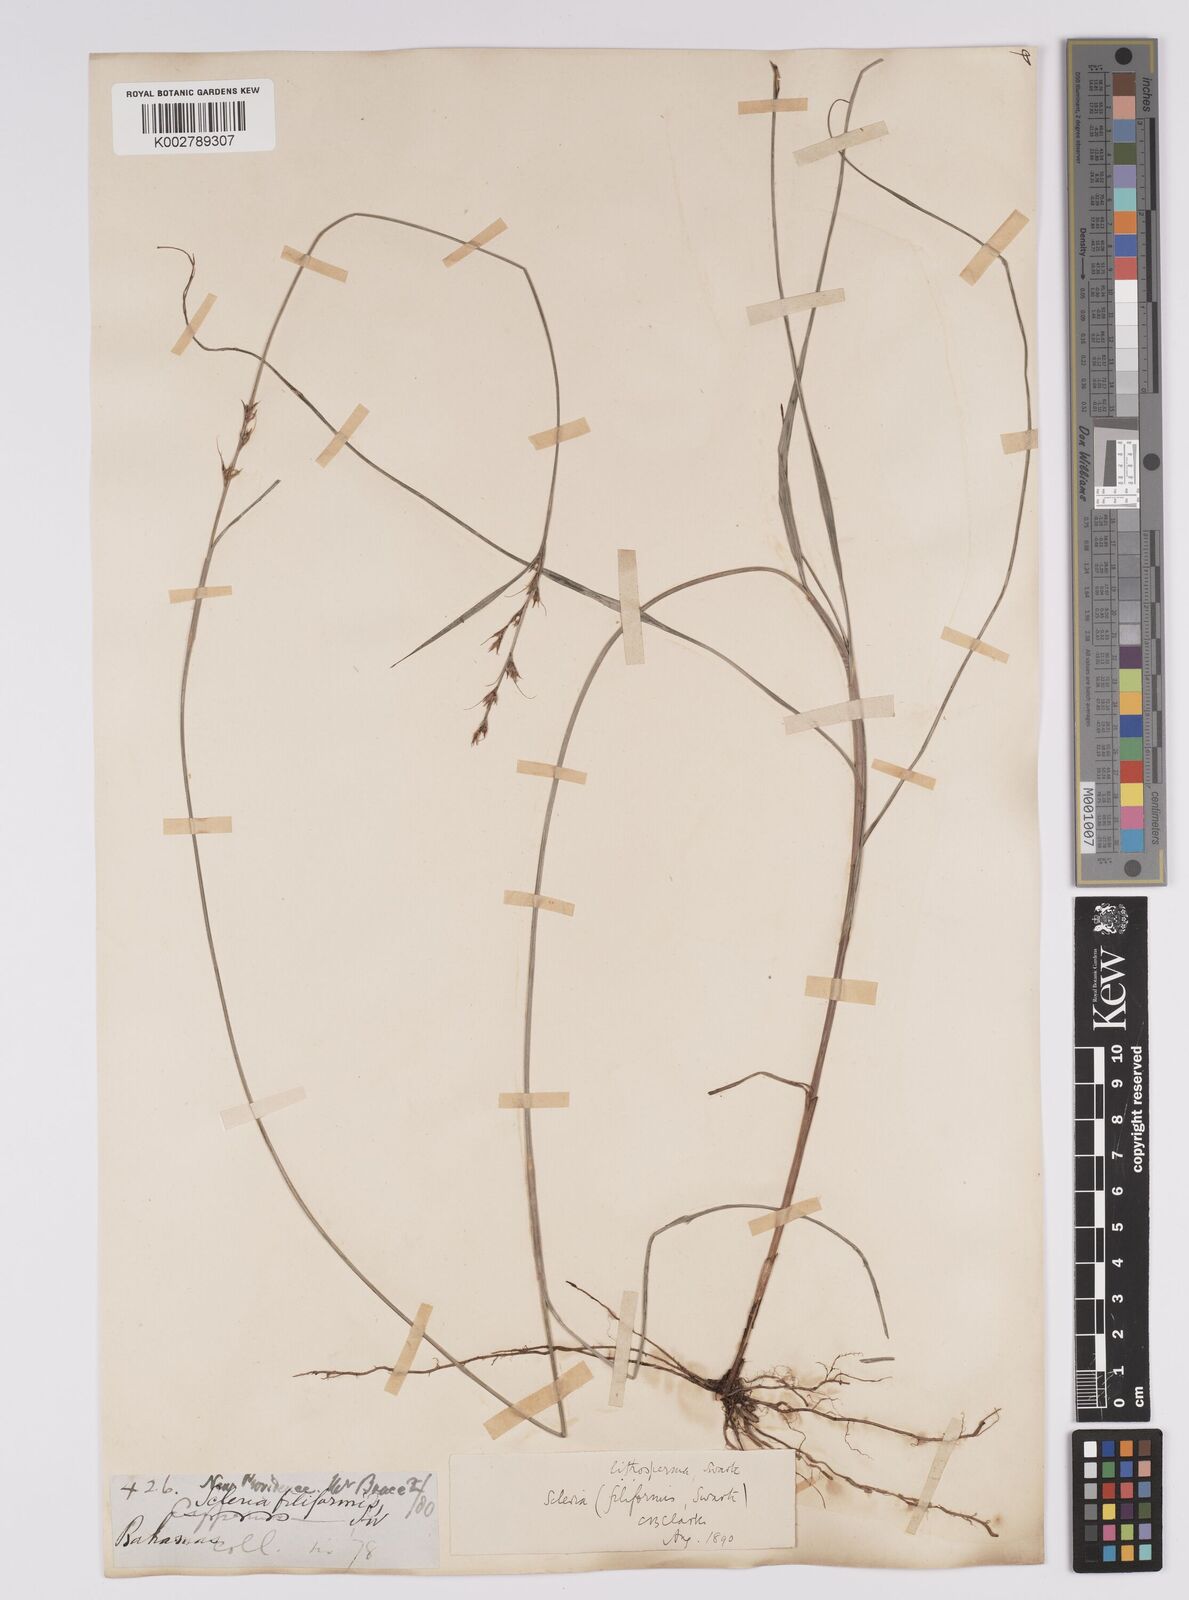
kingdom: Plantae
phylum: Tracheophyta
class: Liliopsida
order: Poales
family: Cyperaceae
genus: Scleria
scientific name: Scleria lithosperma
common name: Florida keys nut-rush
